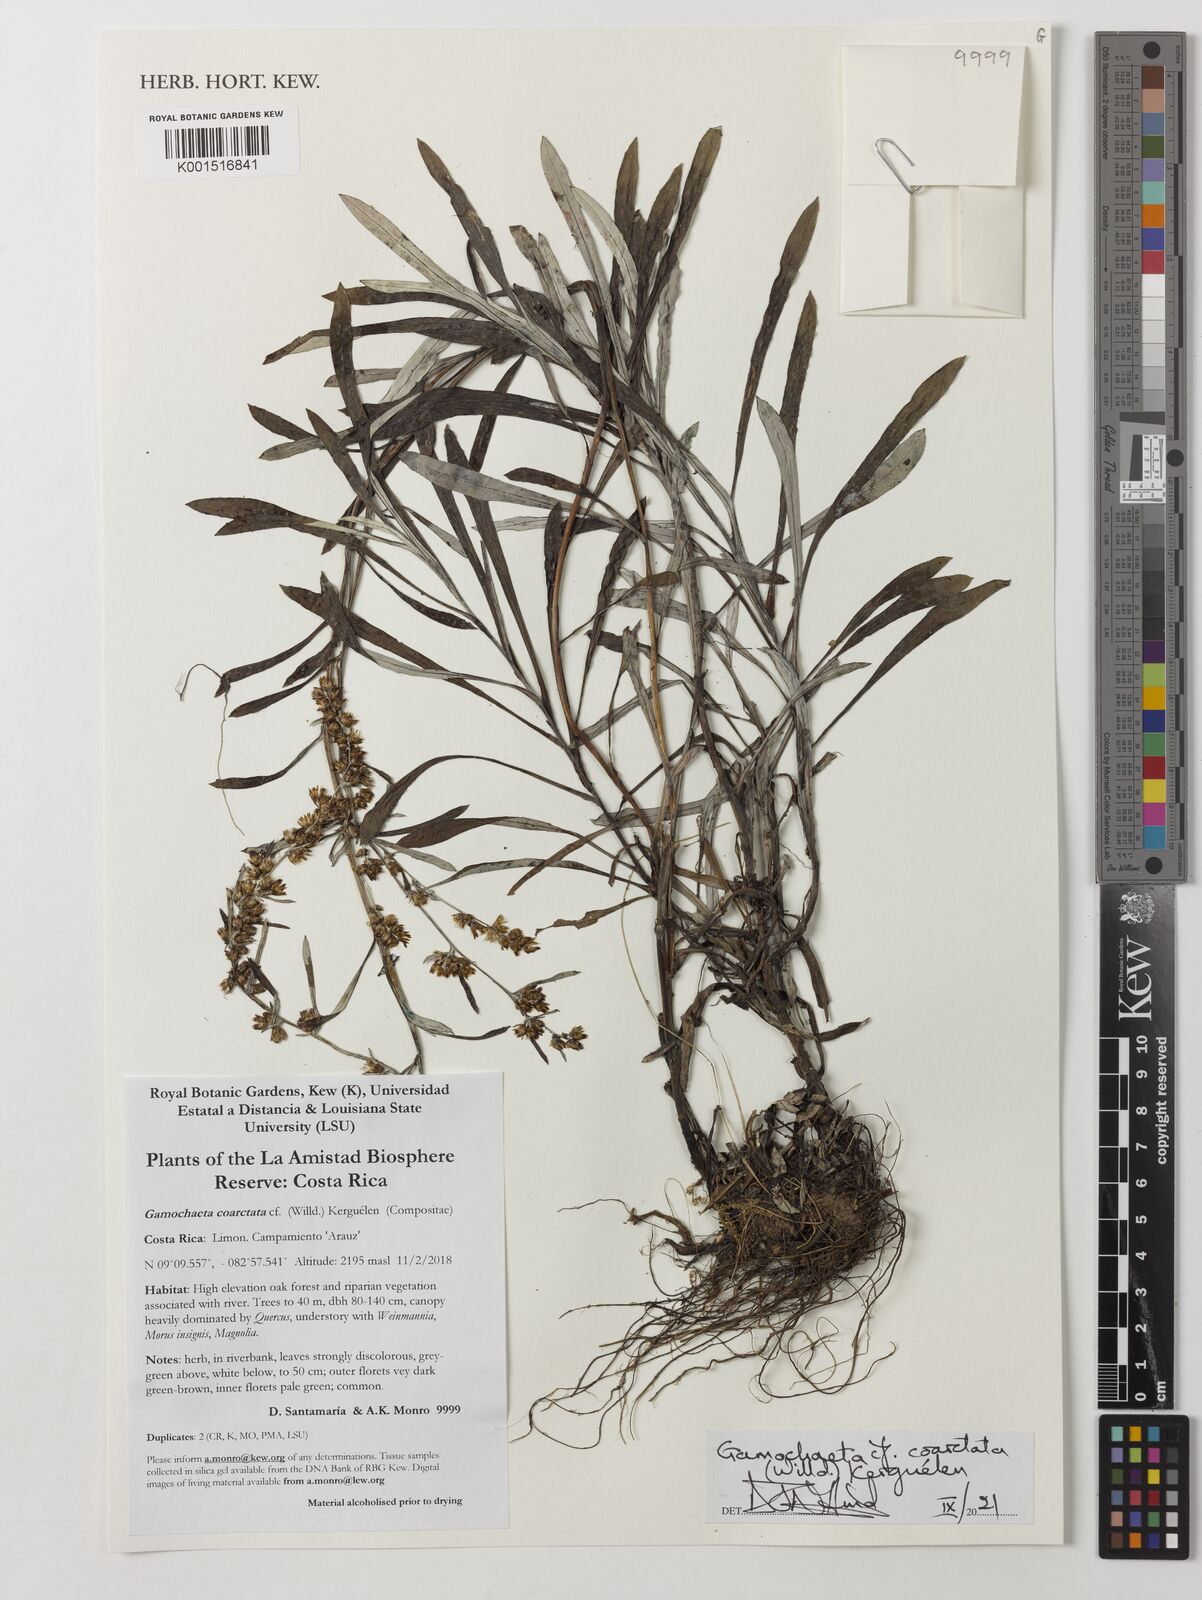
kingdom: Plantae
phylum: Tracheophyta
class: Magnoliopsida
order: Asterales
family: Asteraceae
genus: Gamochaeta
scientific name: Gamochaeta americana
